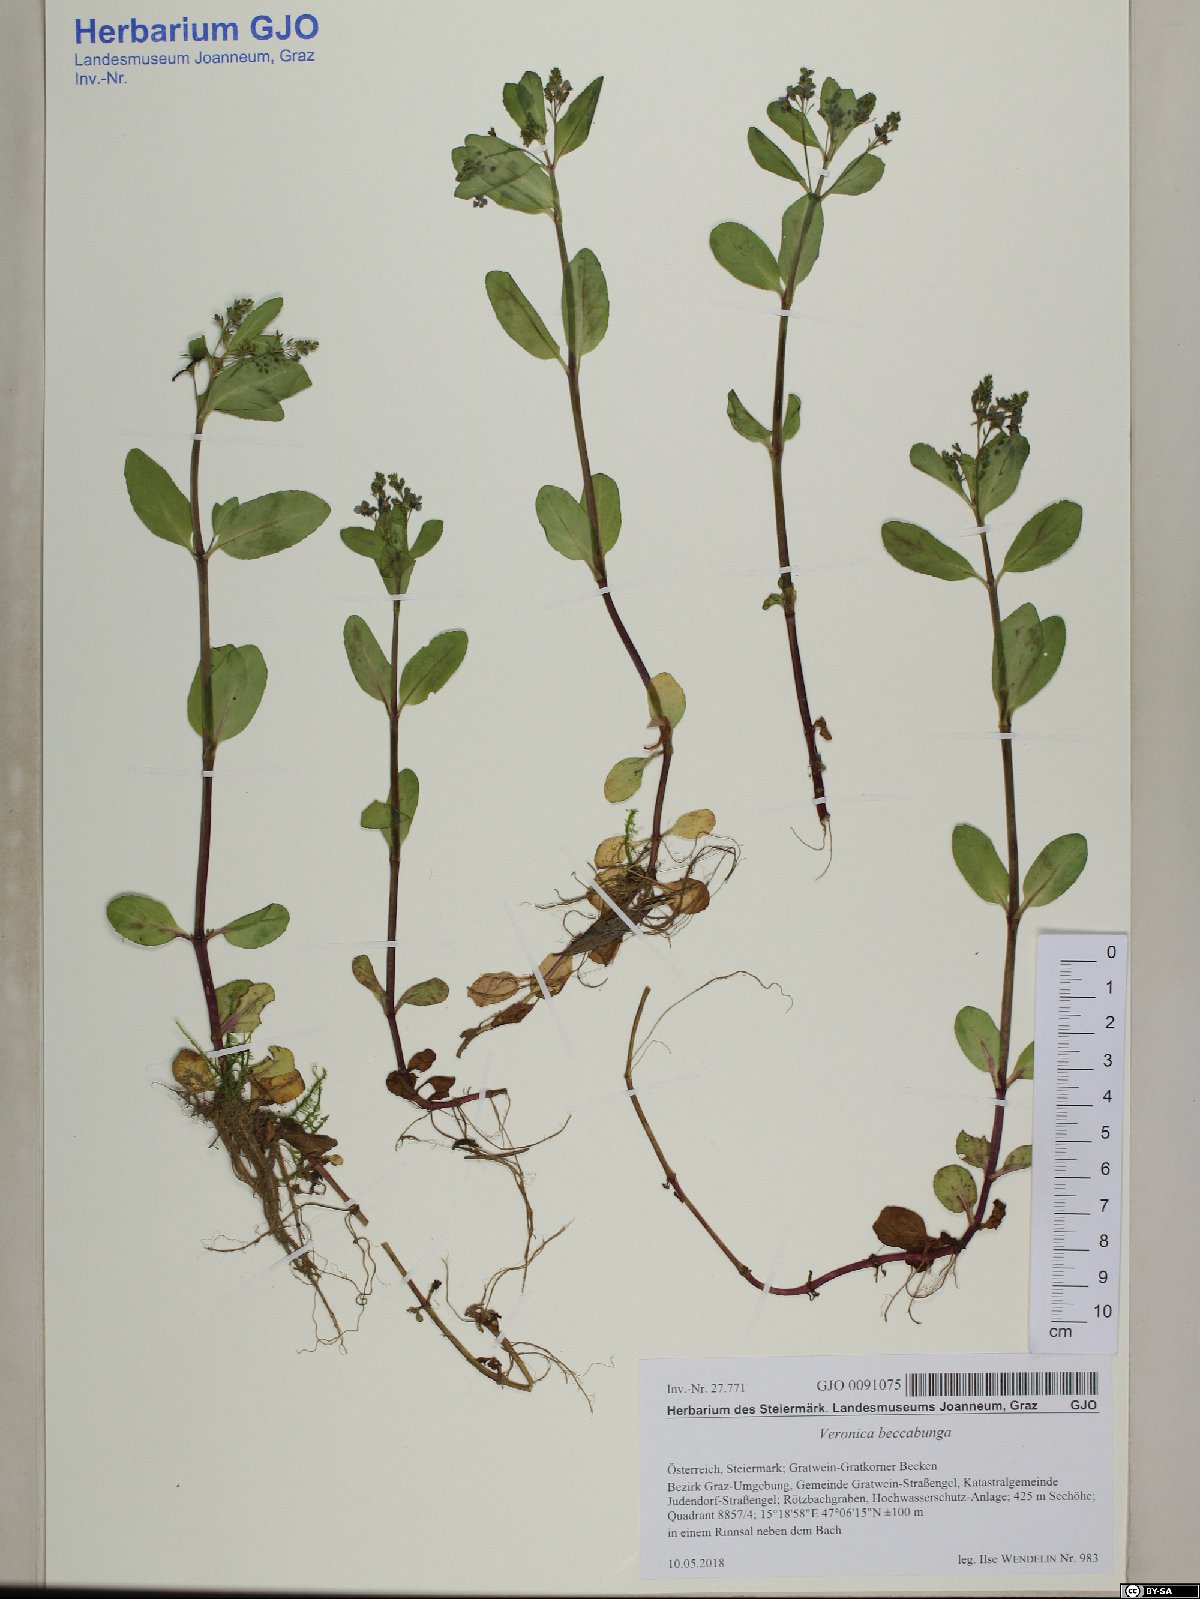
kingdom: Plantae
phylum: Tracheophyta
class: Magnoliopsida
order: Lamiales
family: Plantaginaceae
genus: Veronica
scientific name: Veronica beccabunga
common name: Brooklime
